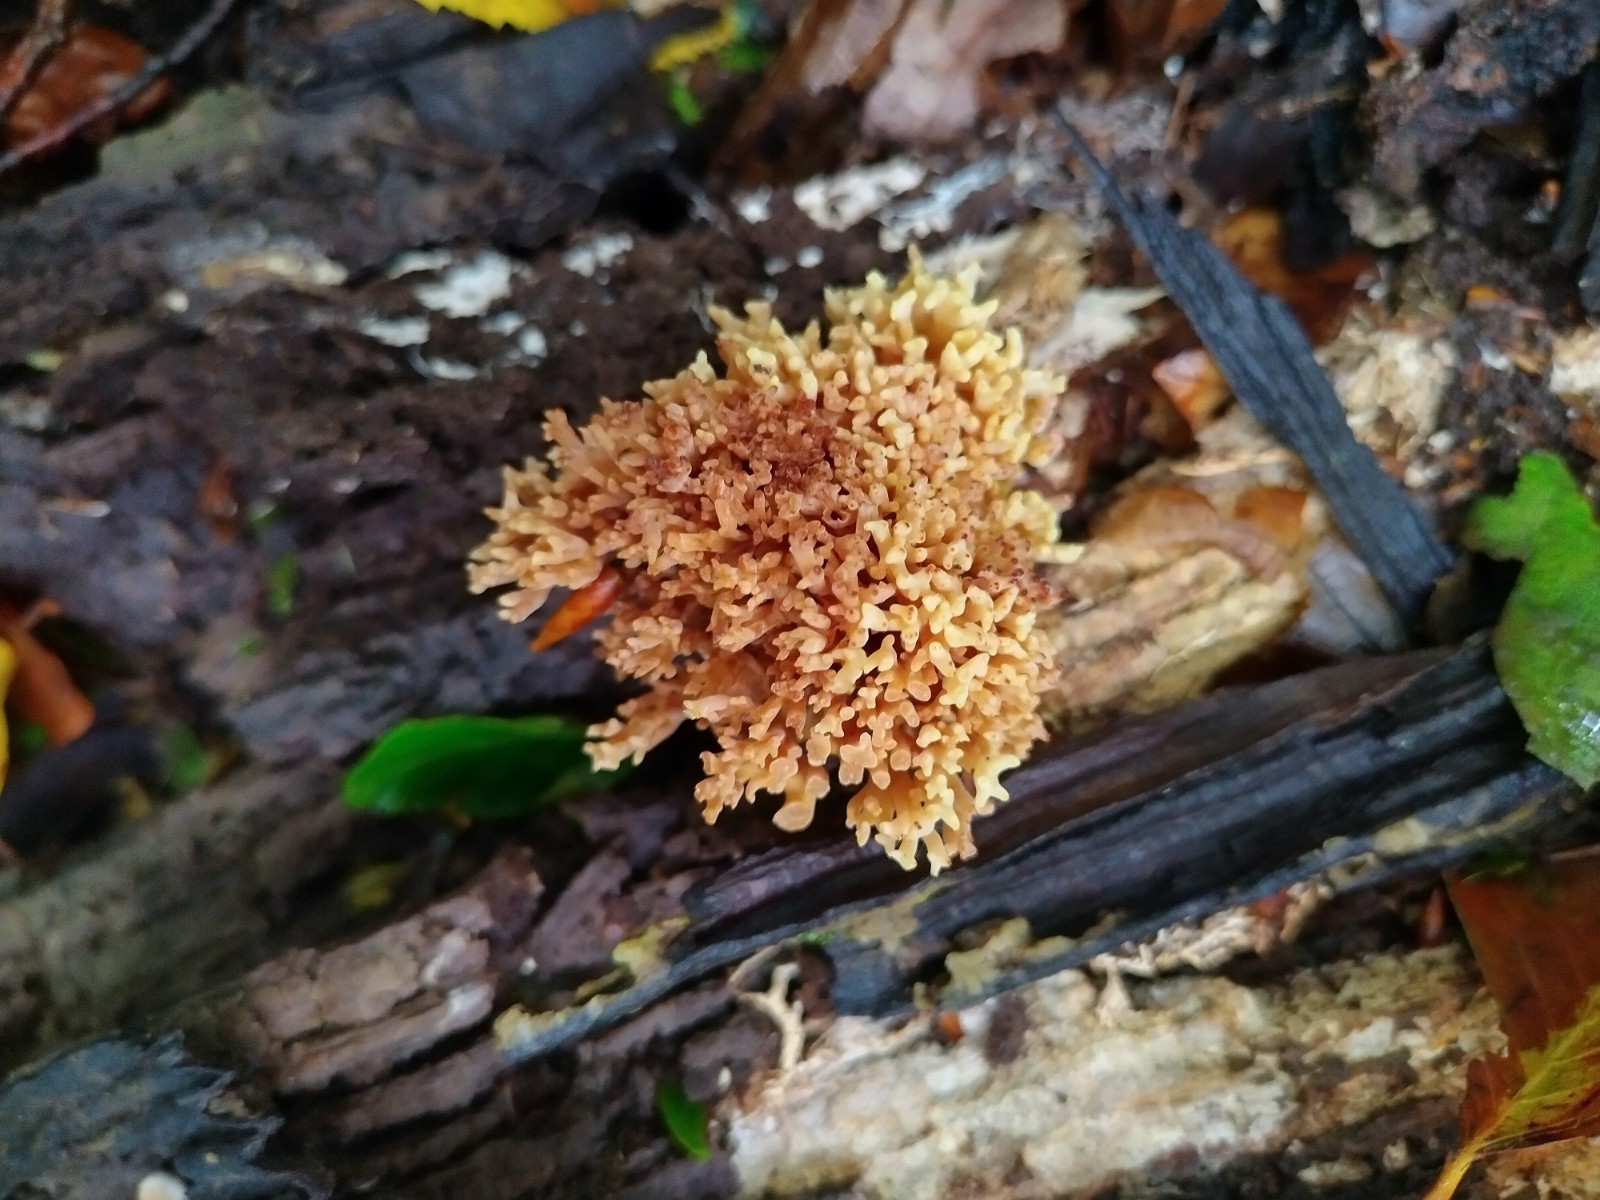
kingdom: Fungi
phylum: Basidiomycota
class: Agaricomycetes
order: Gomphales
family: Gomphaceae
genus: Ramaria
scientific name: Ramaria stricta
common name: rank koralsvamp
